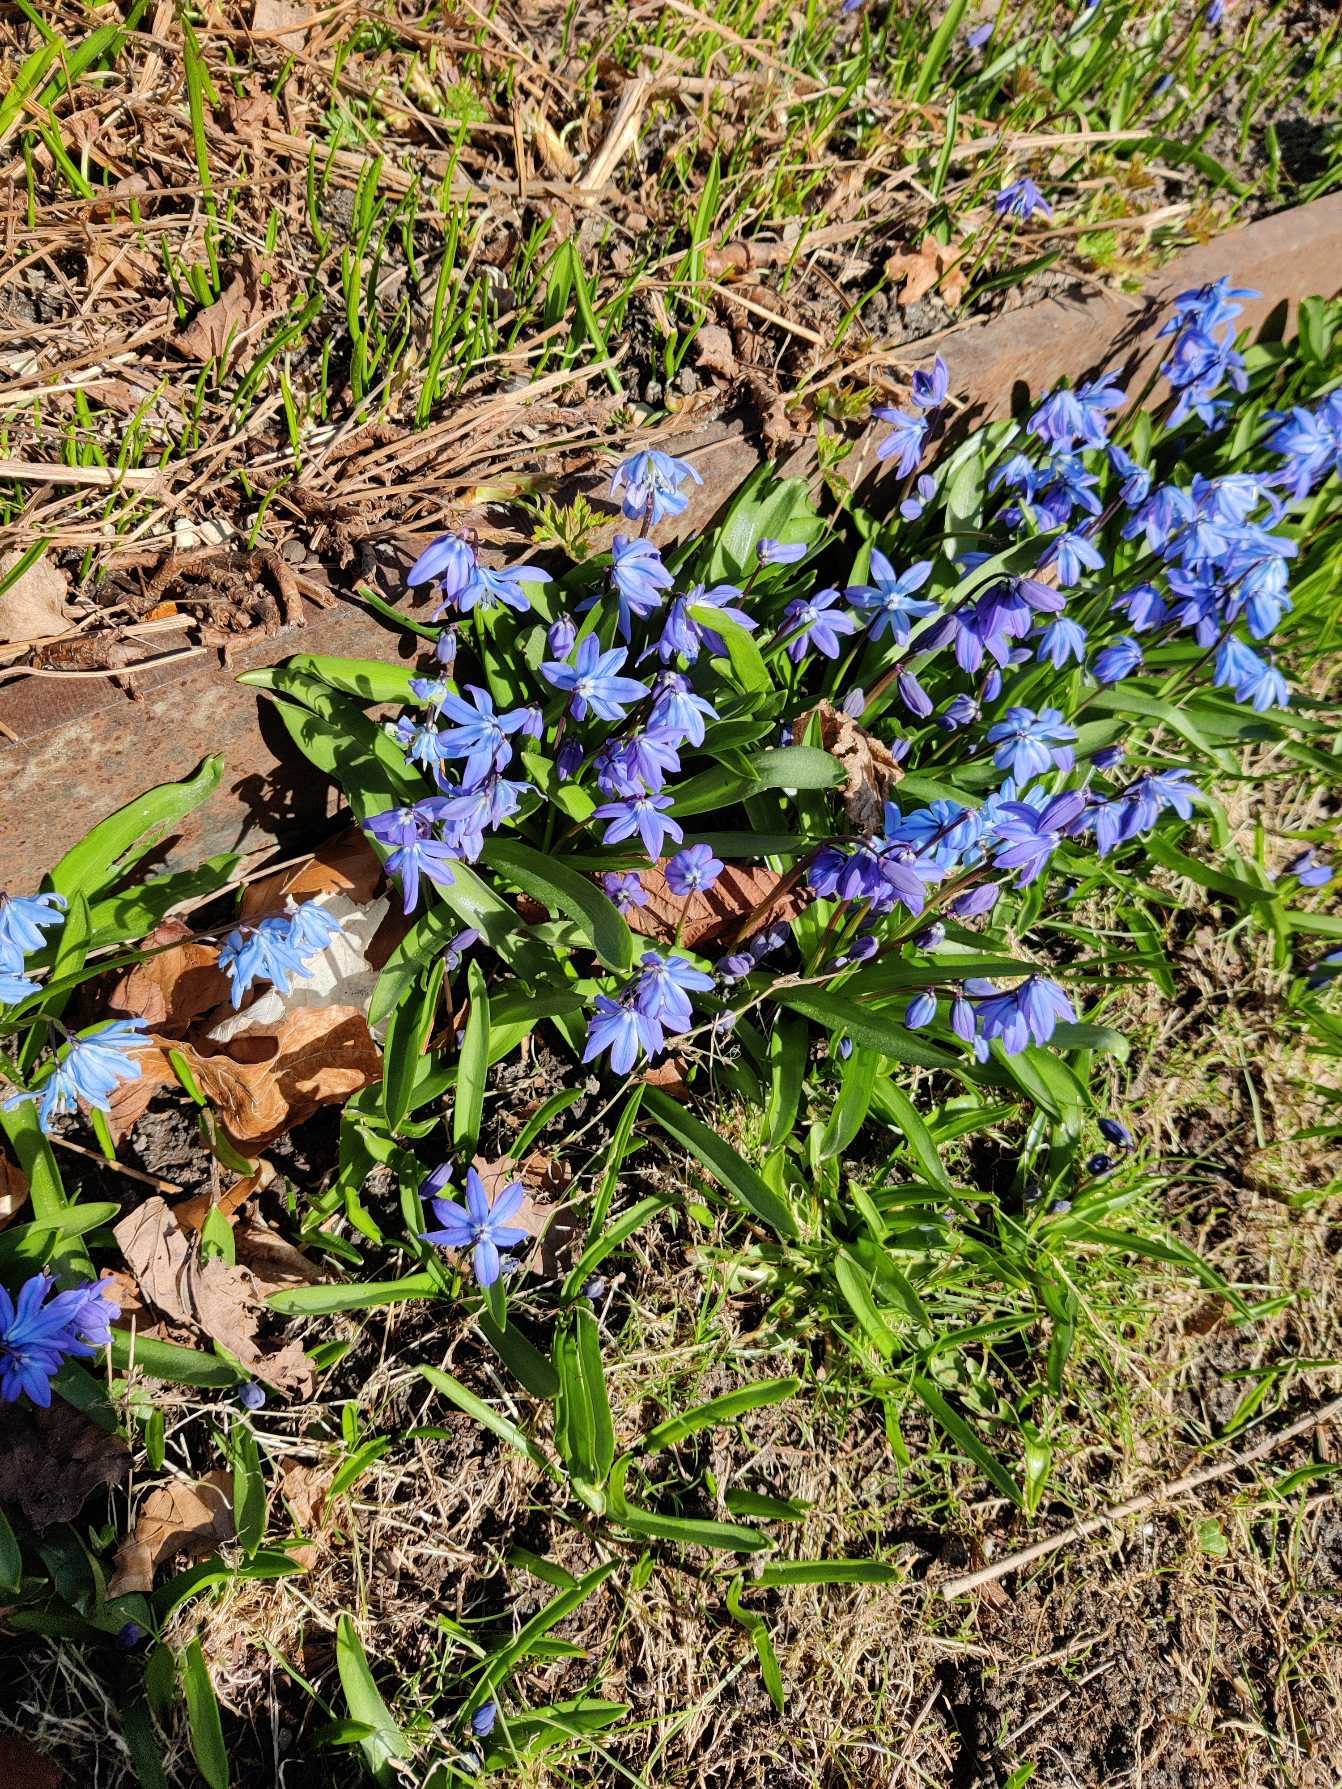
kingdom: Plantae
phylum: Tracheophyta
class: Liliopsida
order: Asparagales
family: Asparagaceae
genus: Scilla
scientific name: Scilla siberica
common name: Russisk skilla
